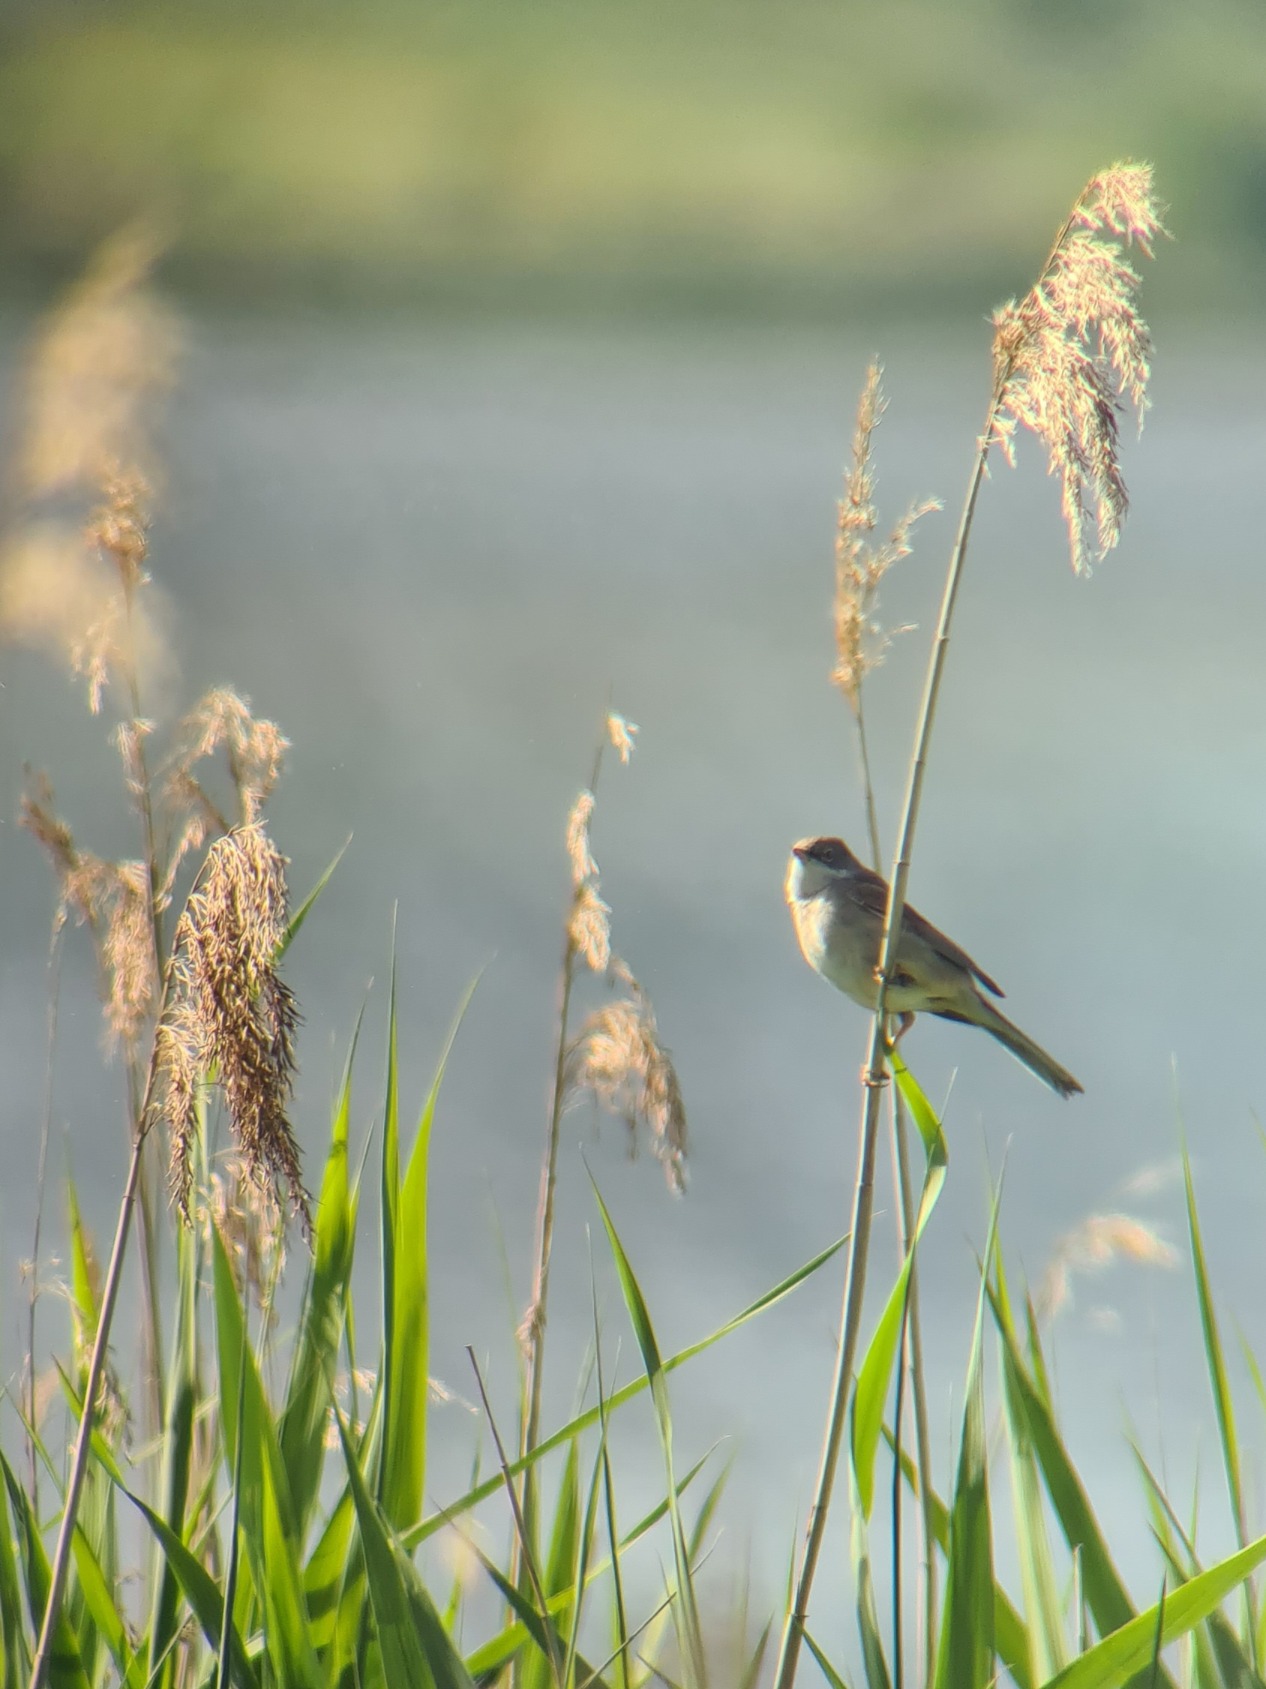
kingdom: Animalia
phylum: Chordata
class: Aves
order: Passeriformes
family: Sylviidae
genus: Sylvia
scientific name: Sylvia communis
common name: Tornsanger
